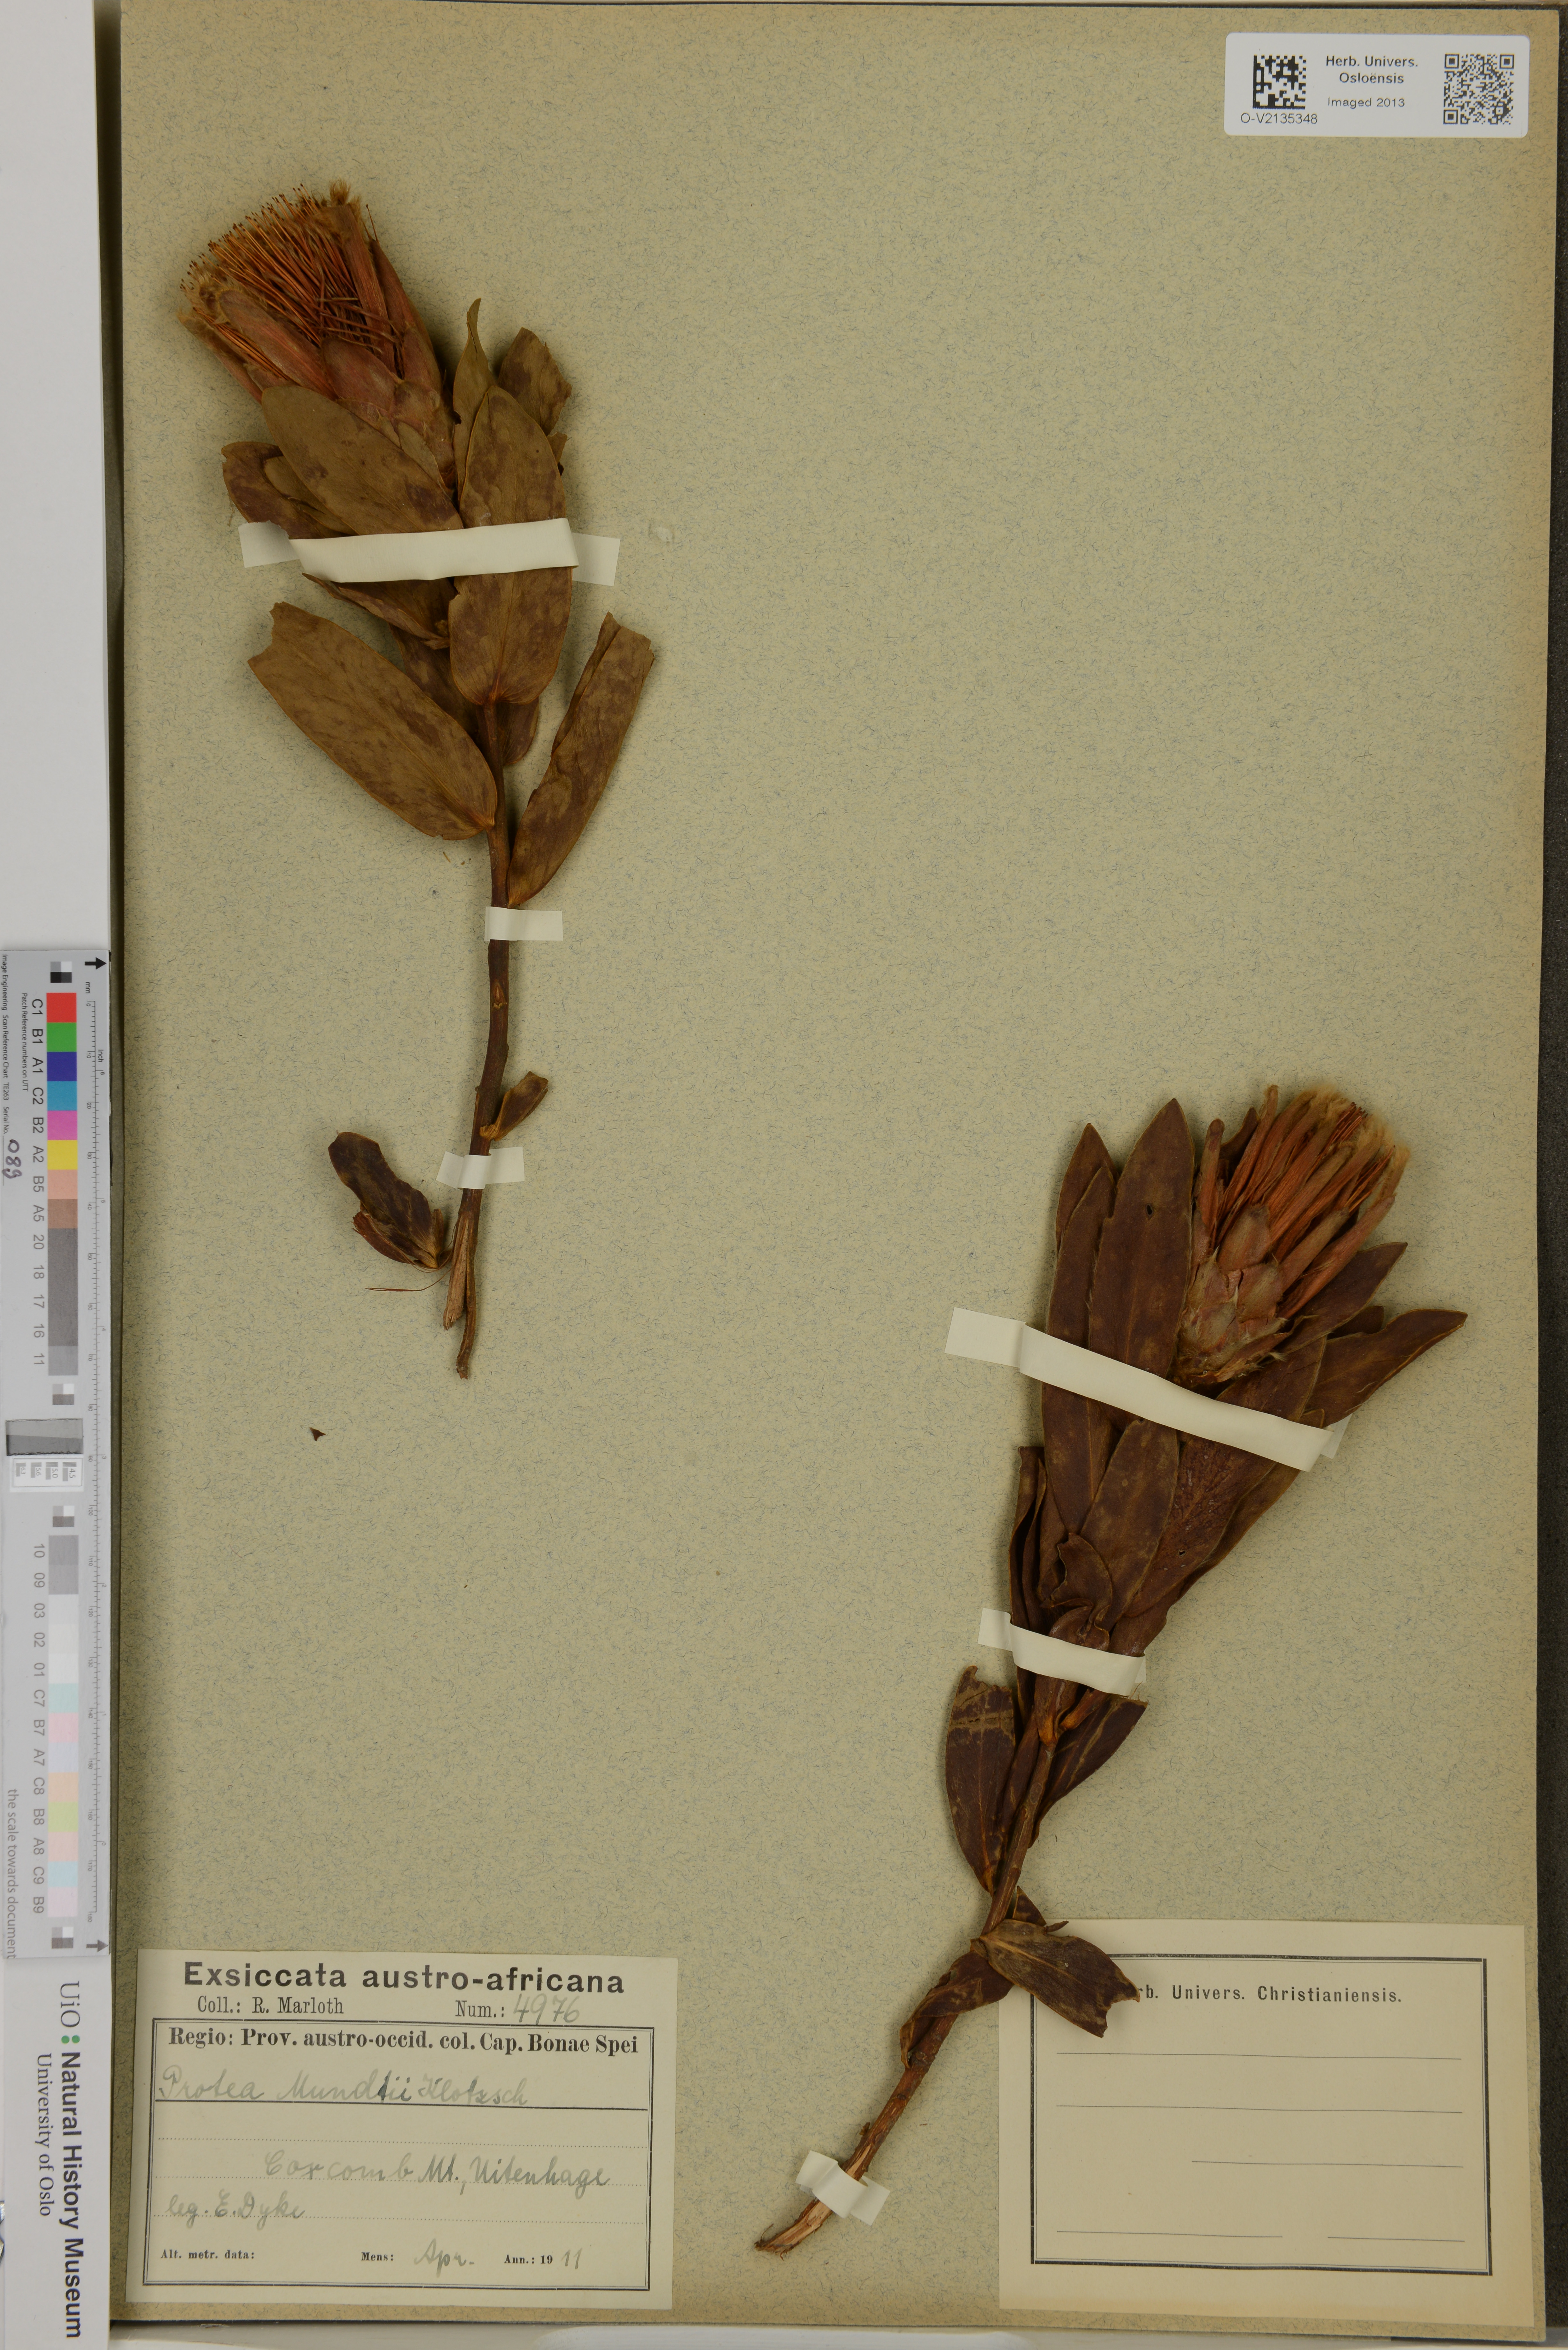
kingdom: Plantae
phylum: Tracheophyta
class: Magnoliopsida
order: Proteales
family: Proteaceae
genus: Protea
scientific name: Protea mundii
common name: Forest sugarbush
